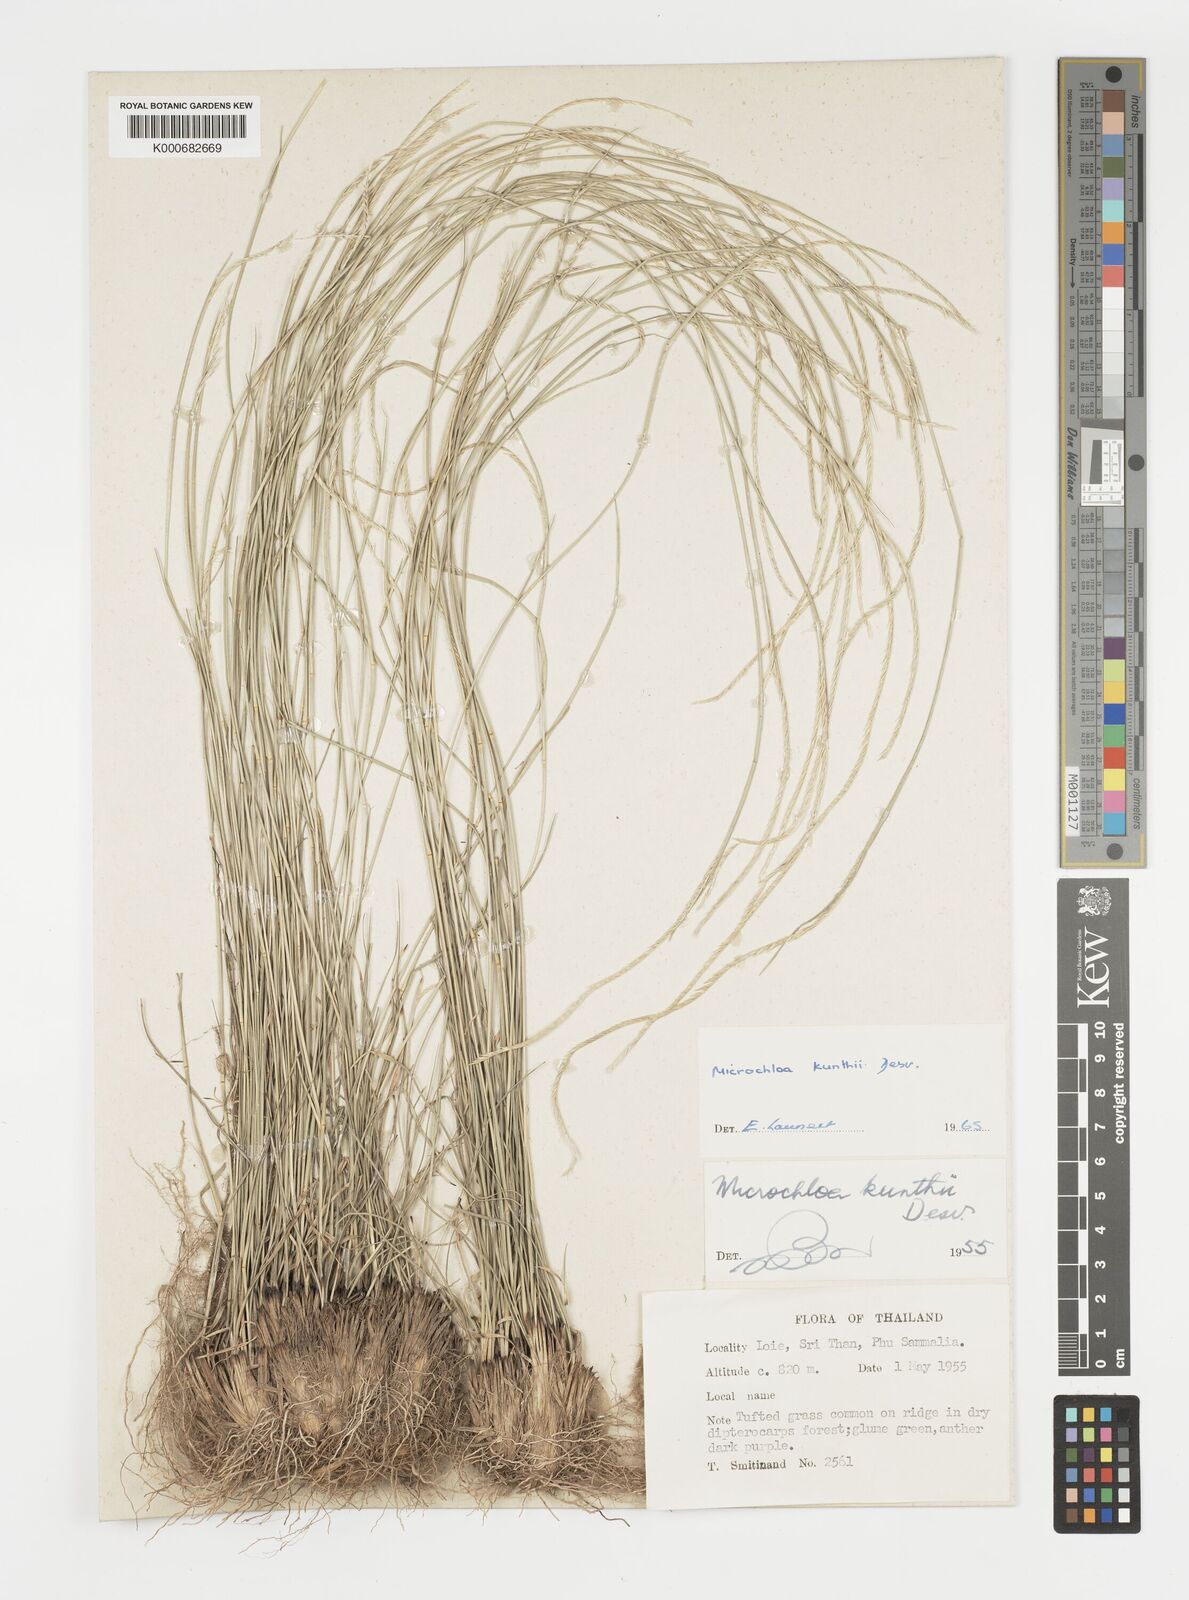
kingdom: Plantae
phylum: Tracheophyta
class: Liliopsida
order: Poales
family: Poaceae
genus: Microchloa
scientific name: Microchloa kunthii
